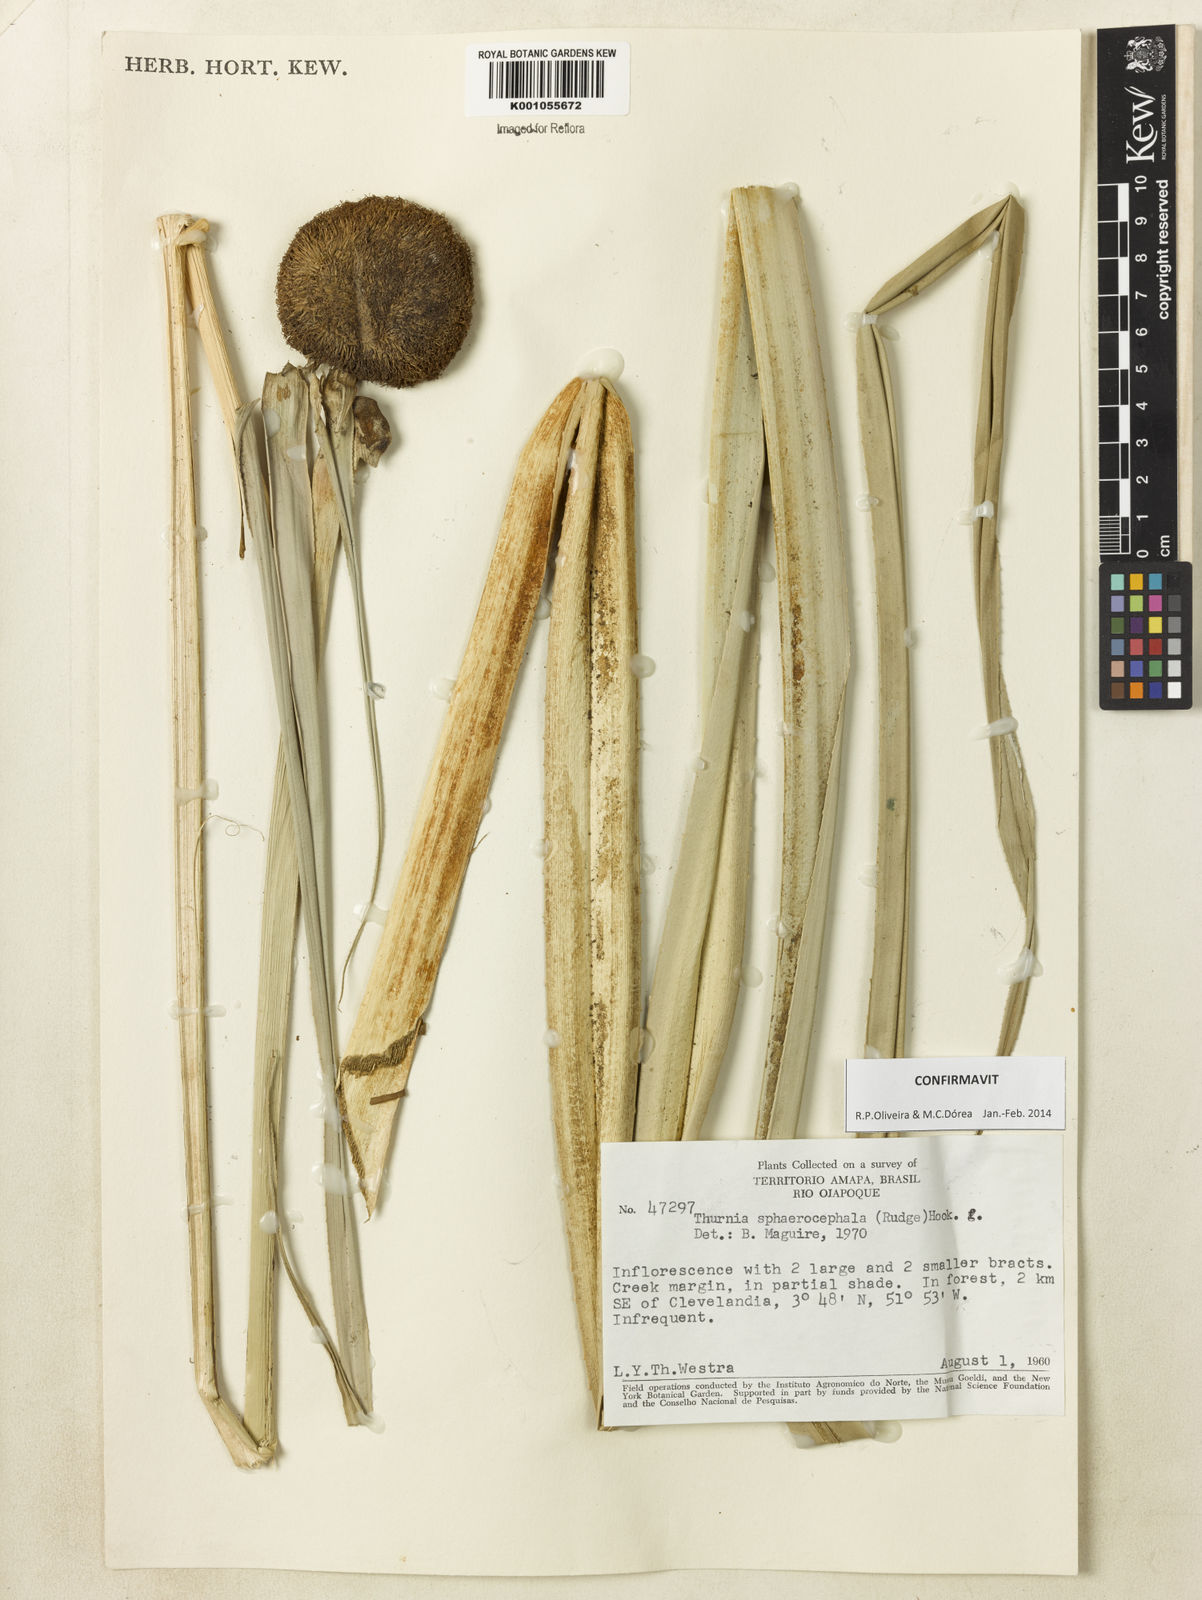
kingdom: Plantae
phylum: Tracheophyta
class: Liliopsida
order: Poales
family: Thurniaceae
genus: Thurnia
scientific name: Thurnia sphaerocephala
